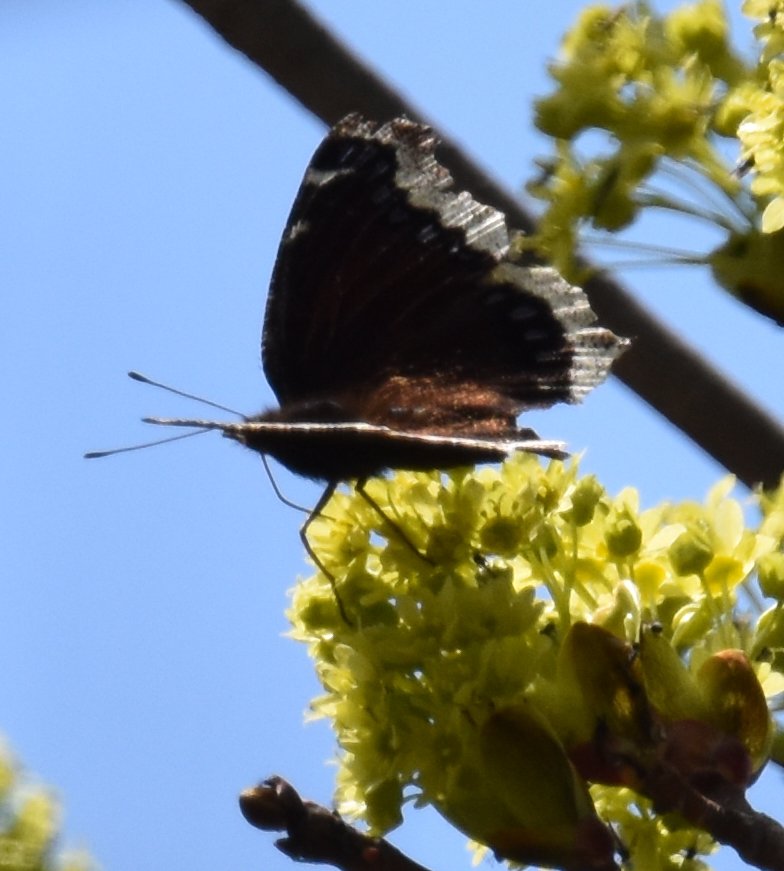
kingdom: Animalia
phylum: Arthropoda
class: Insecta
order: Lepidoptera
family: Nymphalidae
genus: Nymphalis
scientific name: Nymphalis antiopa
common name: Mourning Cloak
